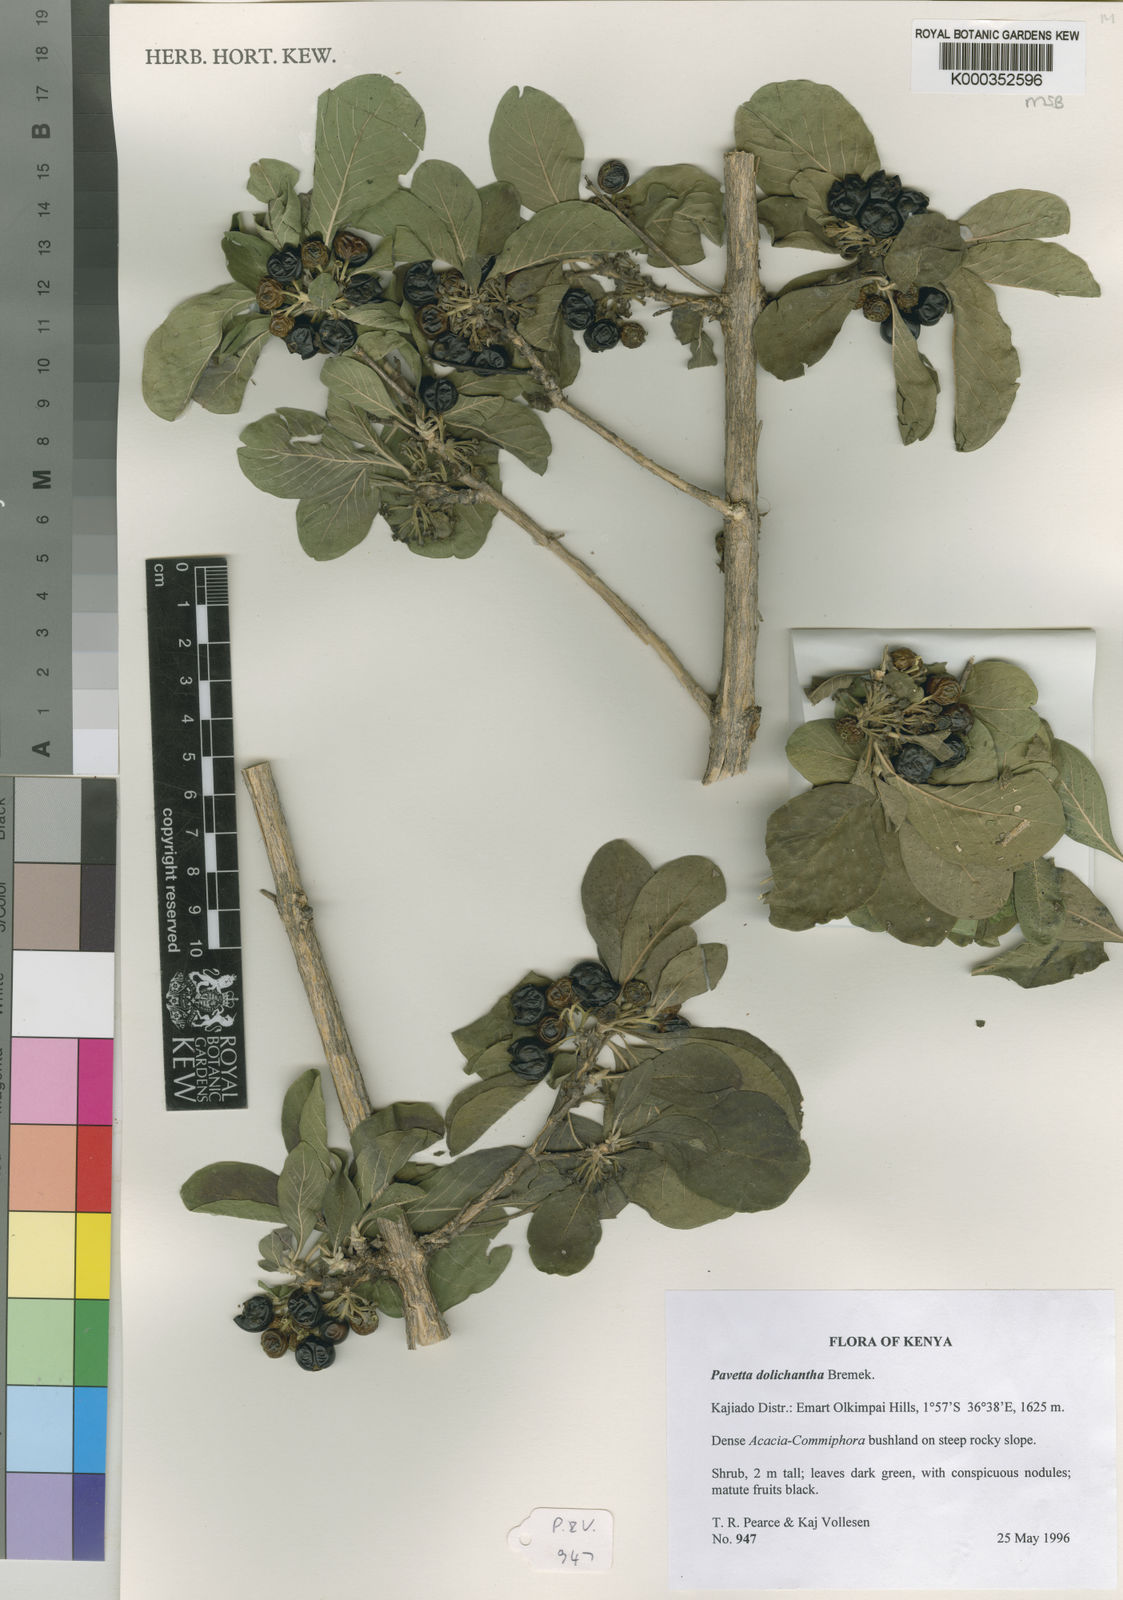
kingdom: Plantae
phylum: Tracheophyta
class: Magnoliopsida
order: Gentianales
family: Rubiaceae
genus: Pavetta
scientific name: Pavetta dolichantha
